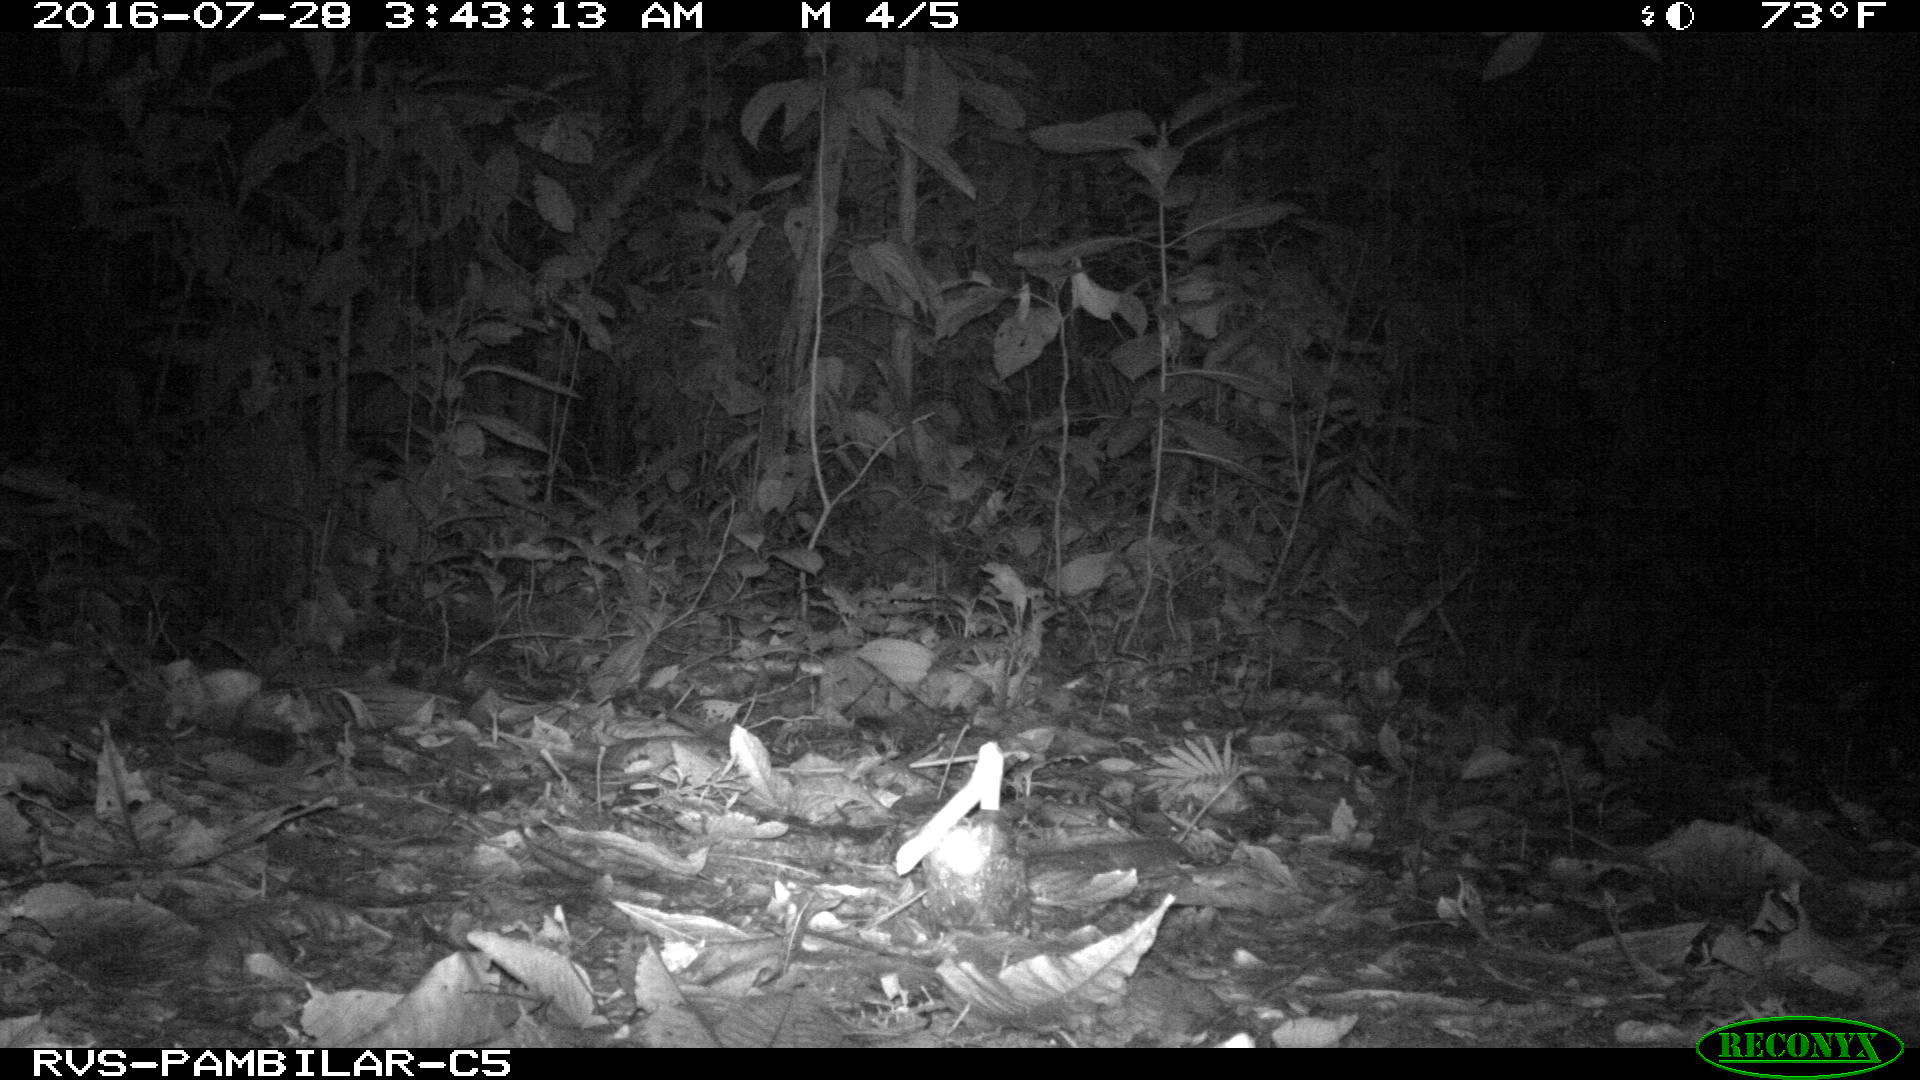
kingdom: Animalia
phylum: Chordata
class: Mammalia
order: Carnivora
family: Felidae
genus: Leopardus
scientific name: Leopardus pardalis
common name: Ocelot
